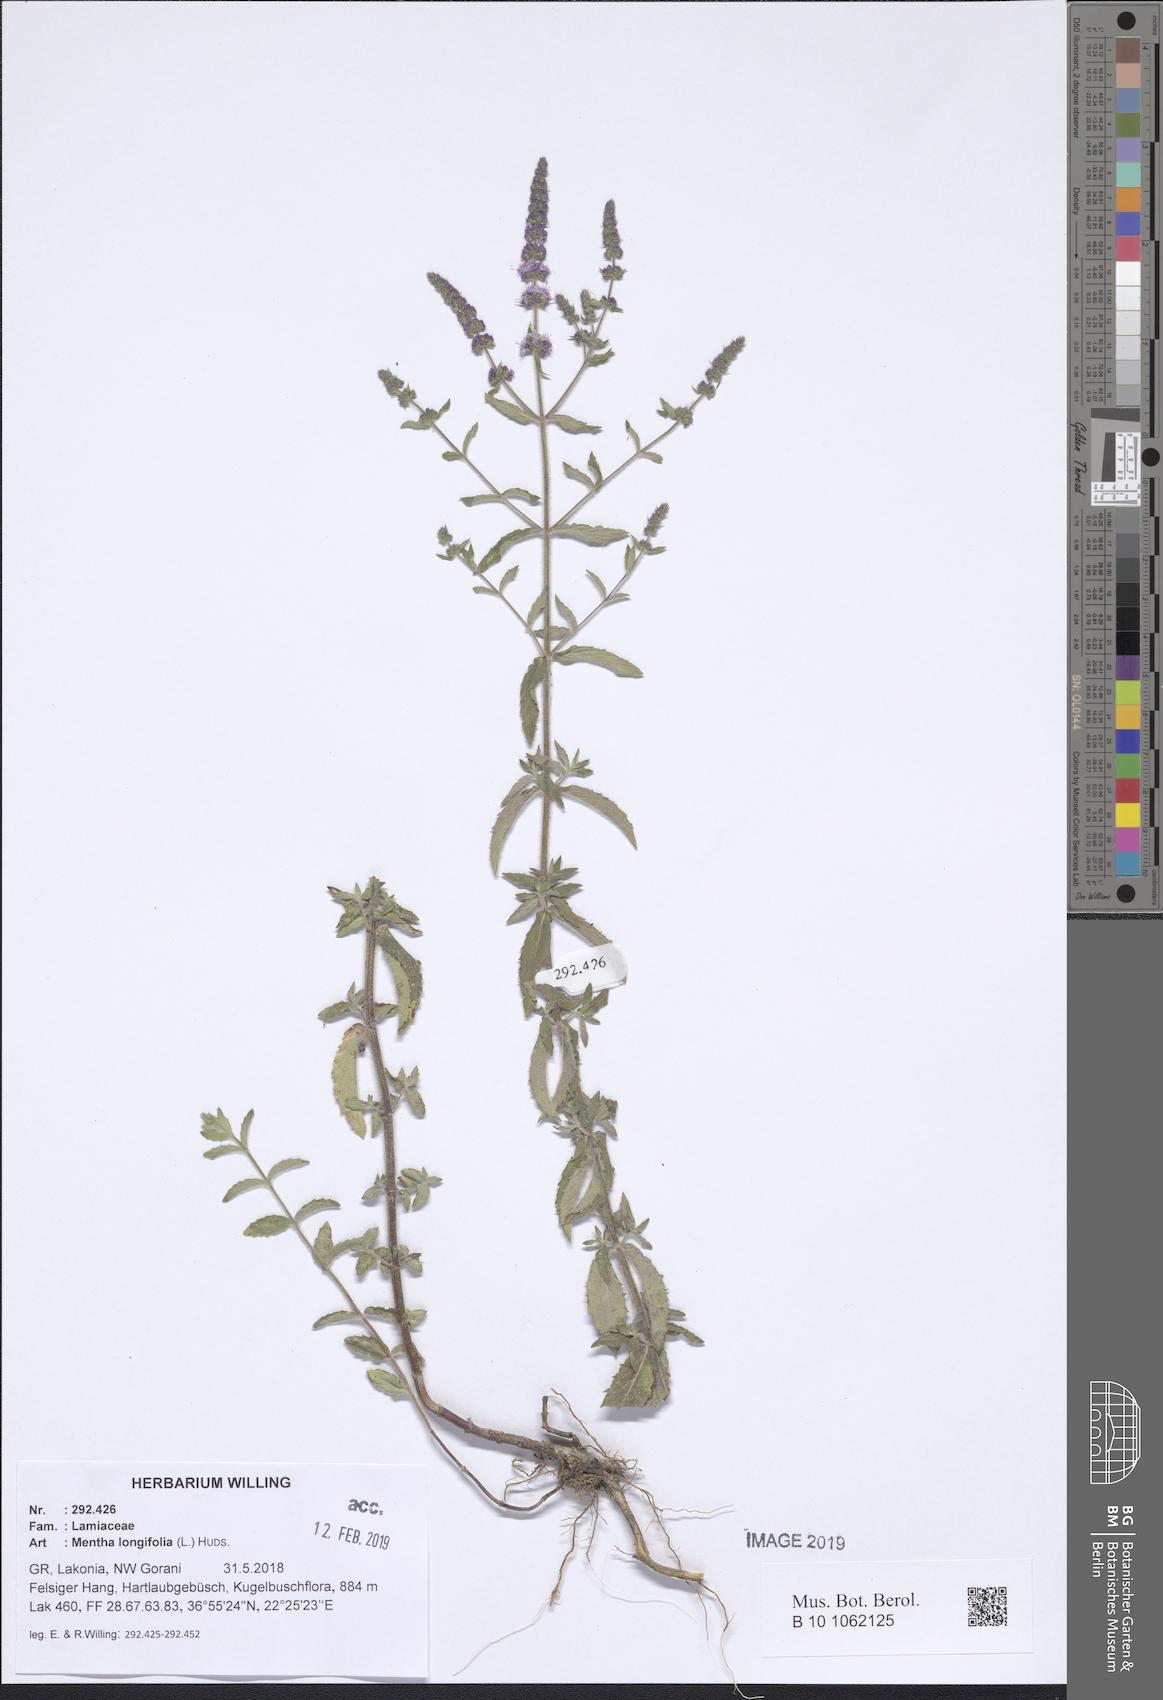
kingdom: Plantae
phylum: Tracheophyta
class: Magnoliopsida
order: Lamiales
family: Lamiaceae
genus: Mentha
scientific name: Mentha longifolia
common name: Horse mint
